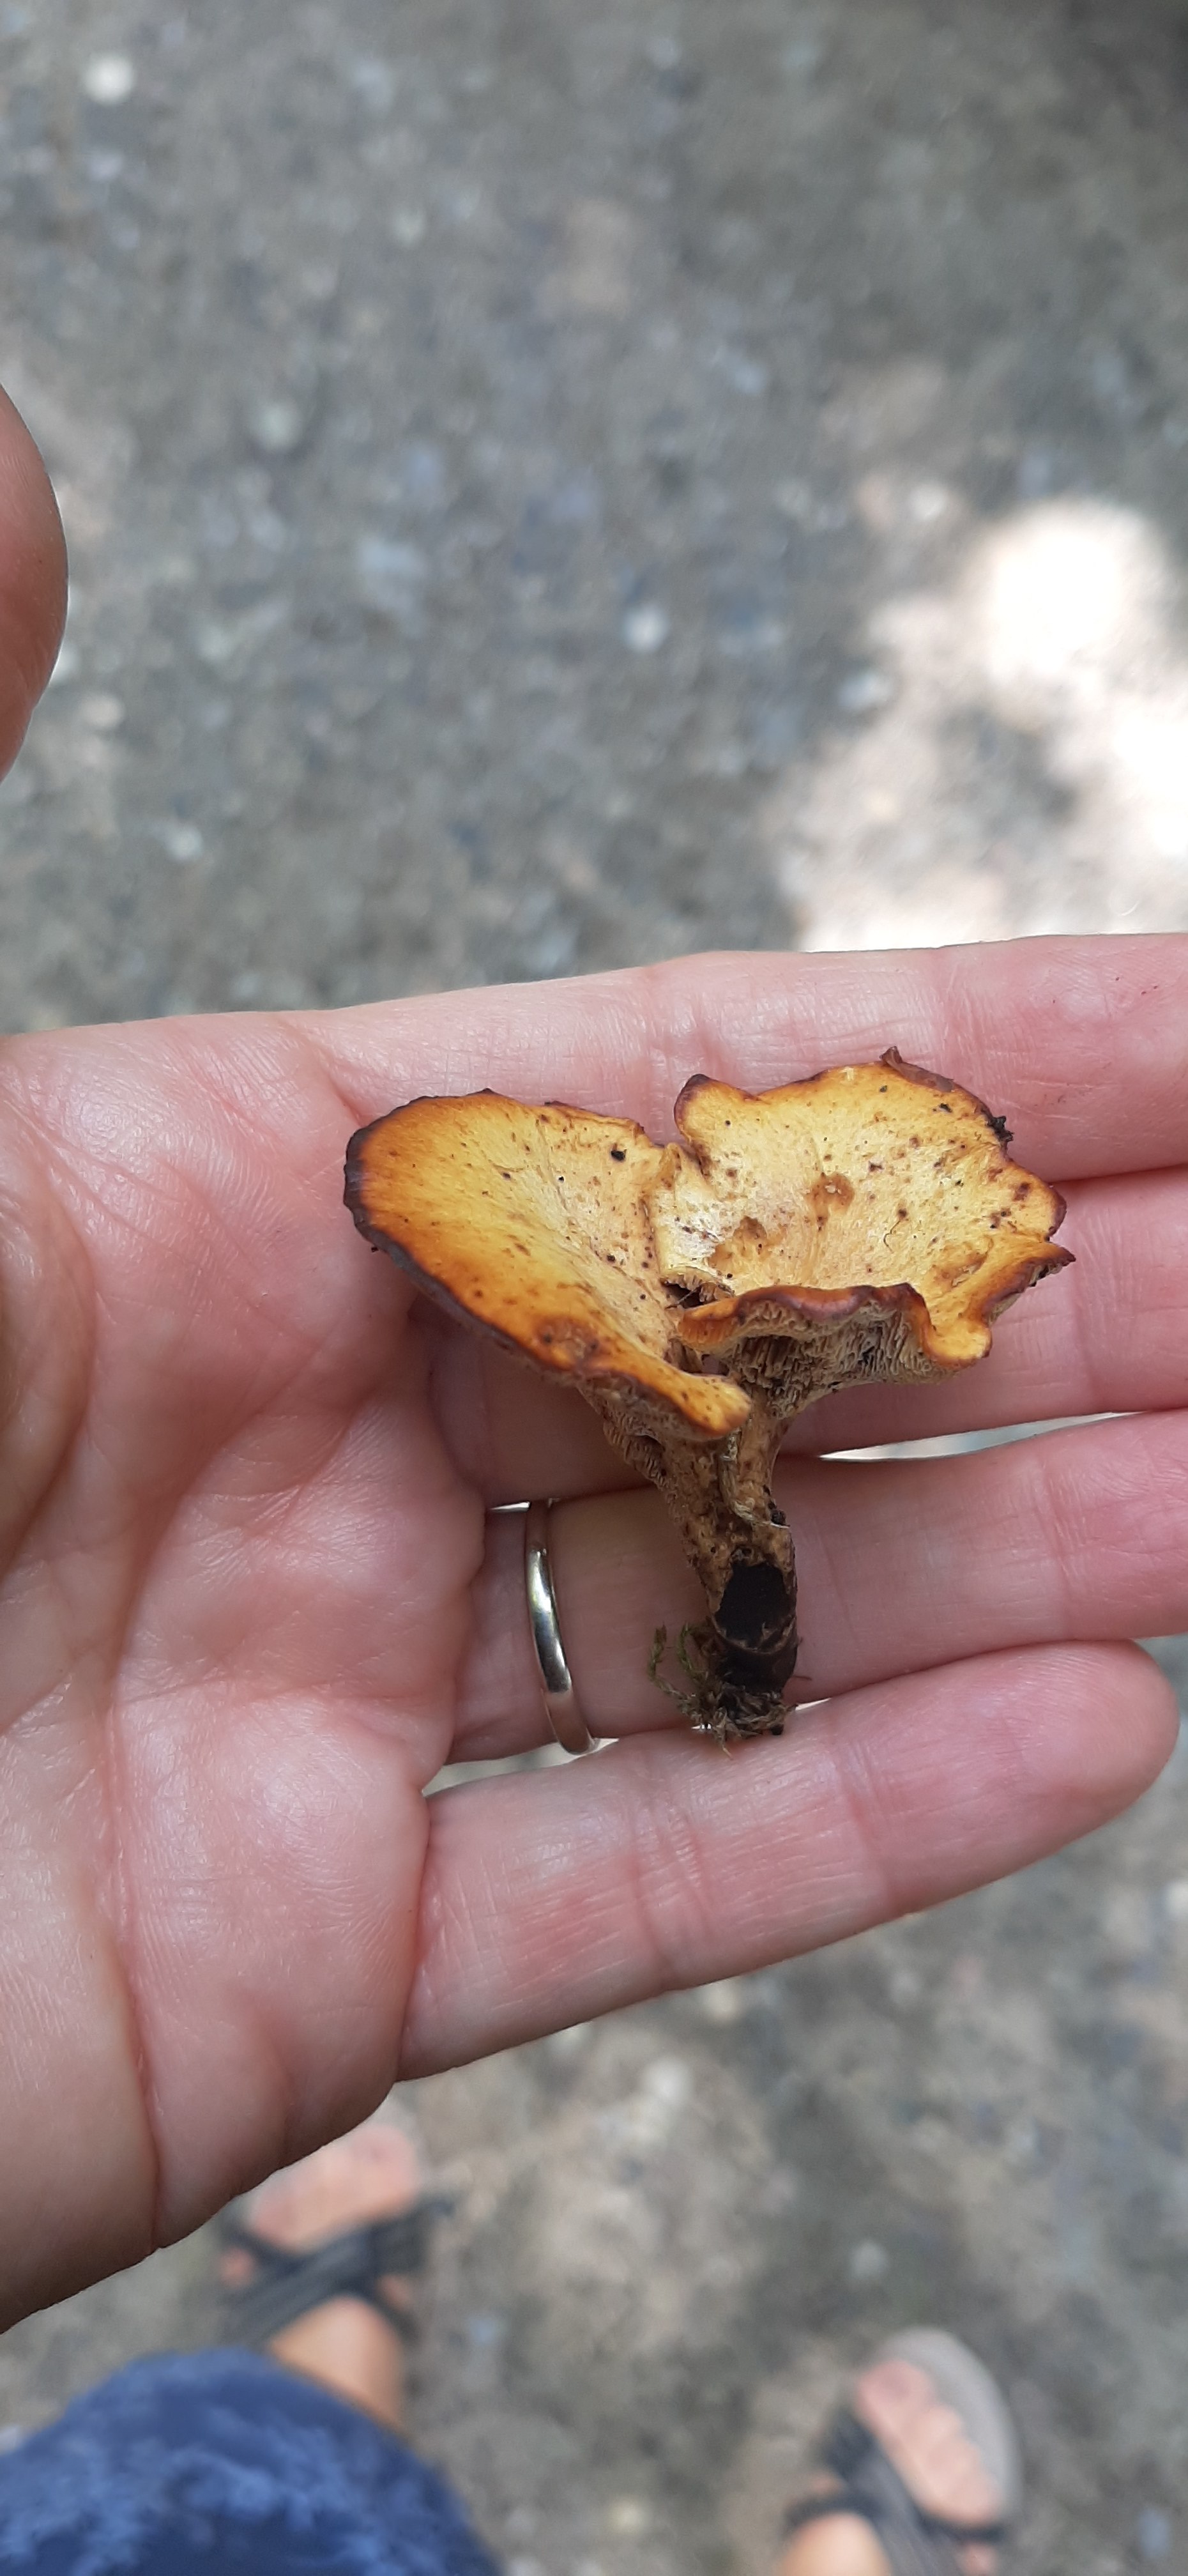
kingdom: Fungi
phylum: Basidiomycota
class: Agaricomycetes
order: Polyporales
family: Polyporaceae
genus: Cerioporus
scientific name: Cerioporus varius
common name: foranderlig stilkporesvamp
